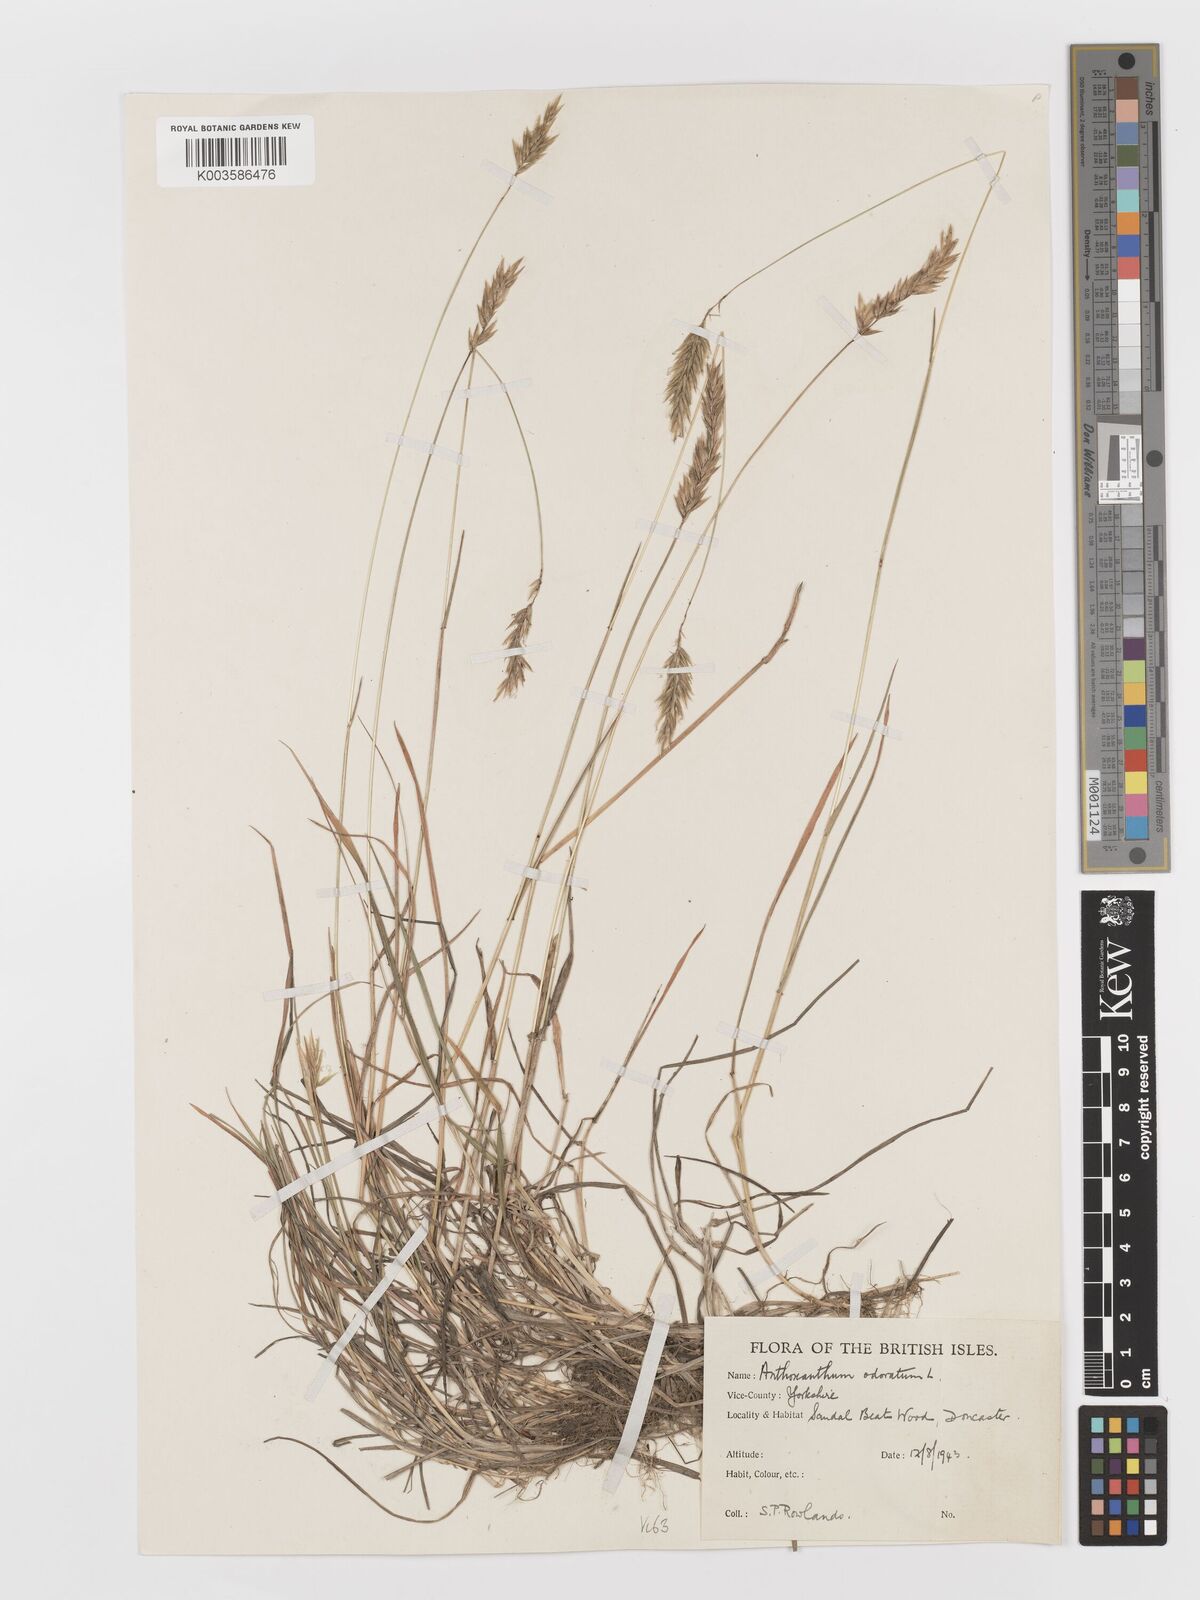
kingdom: Plantae
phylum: Tracheophyta
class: Liliopsida
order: Poales
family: Poaceae
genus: Anthoxanthum
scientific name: Anthoxanthum odoratum
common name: Sweet vernalgrass
